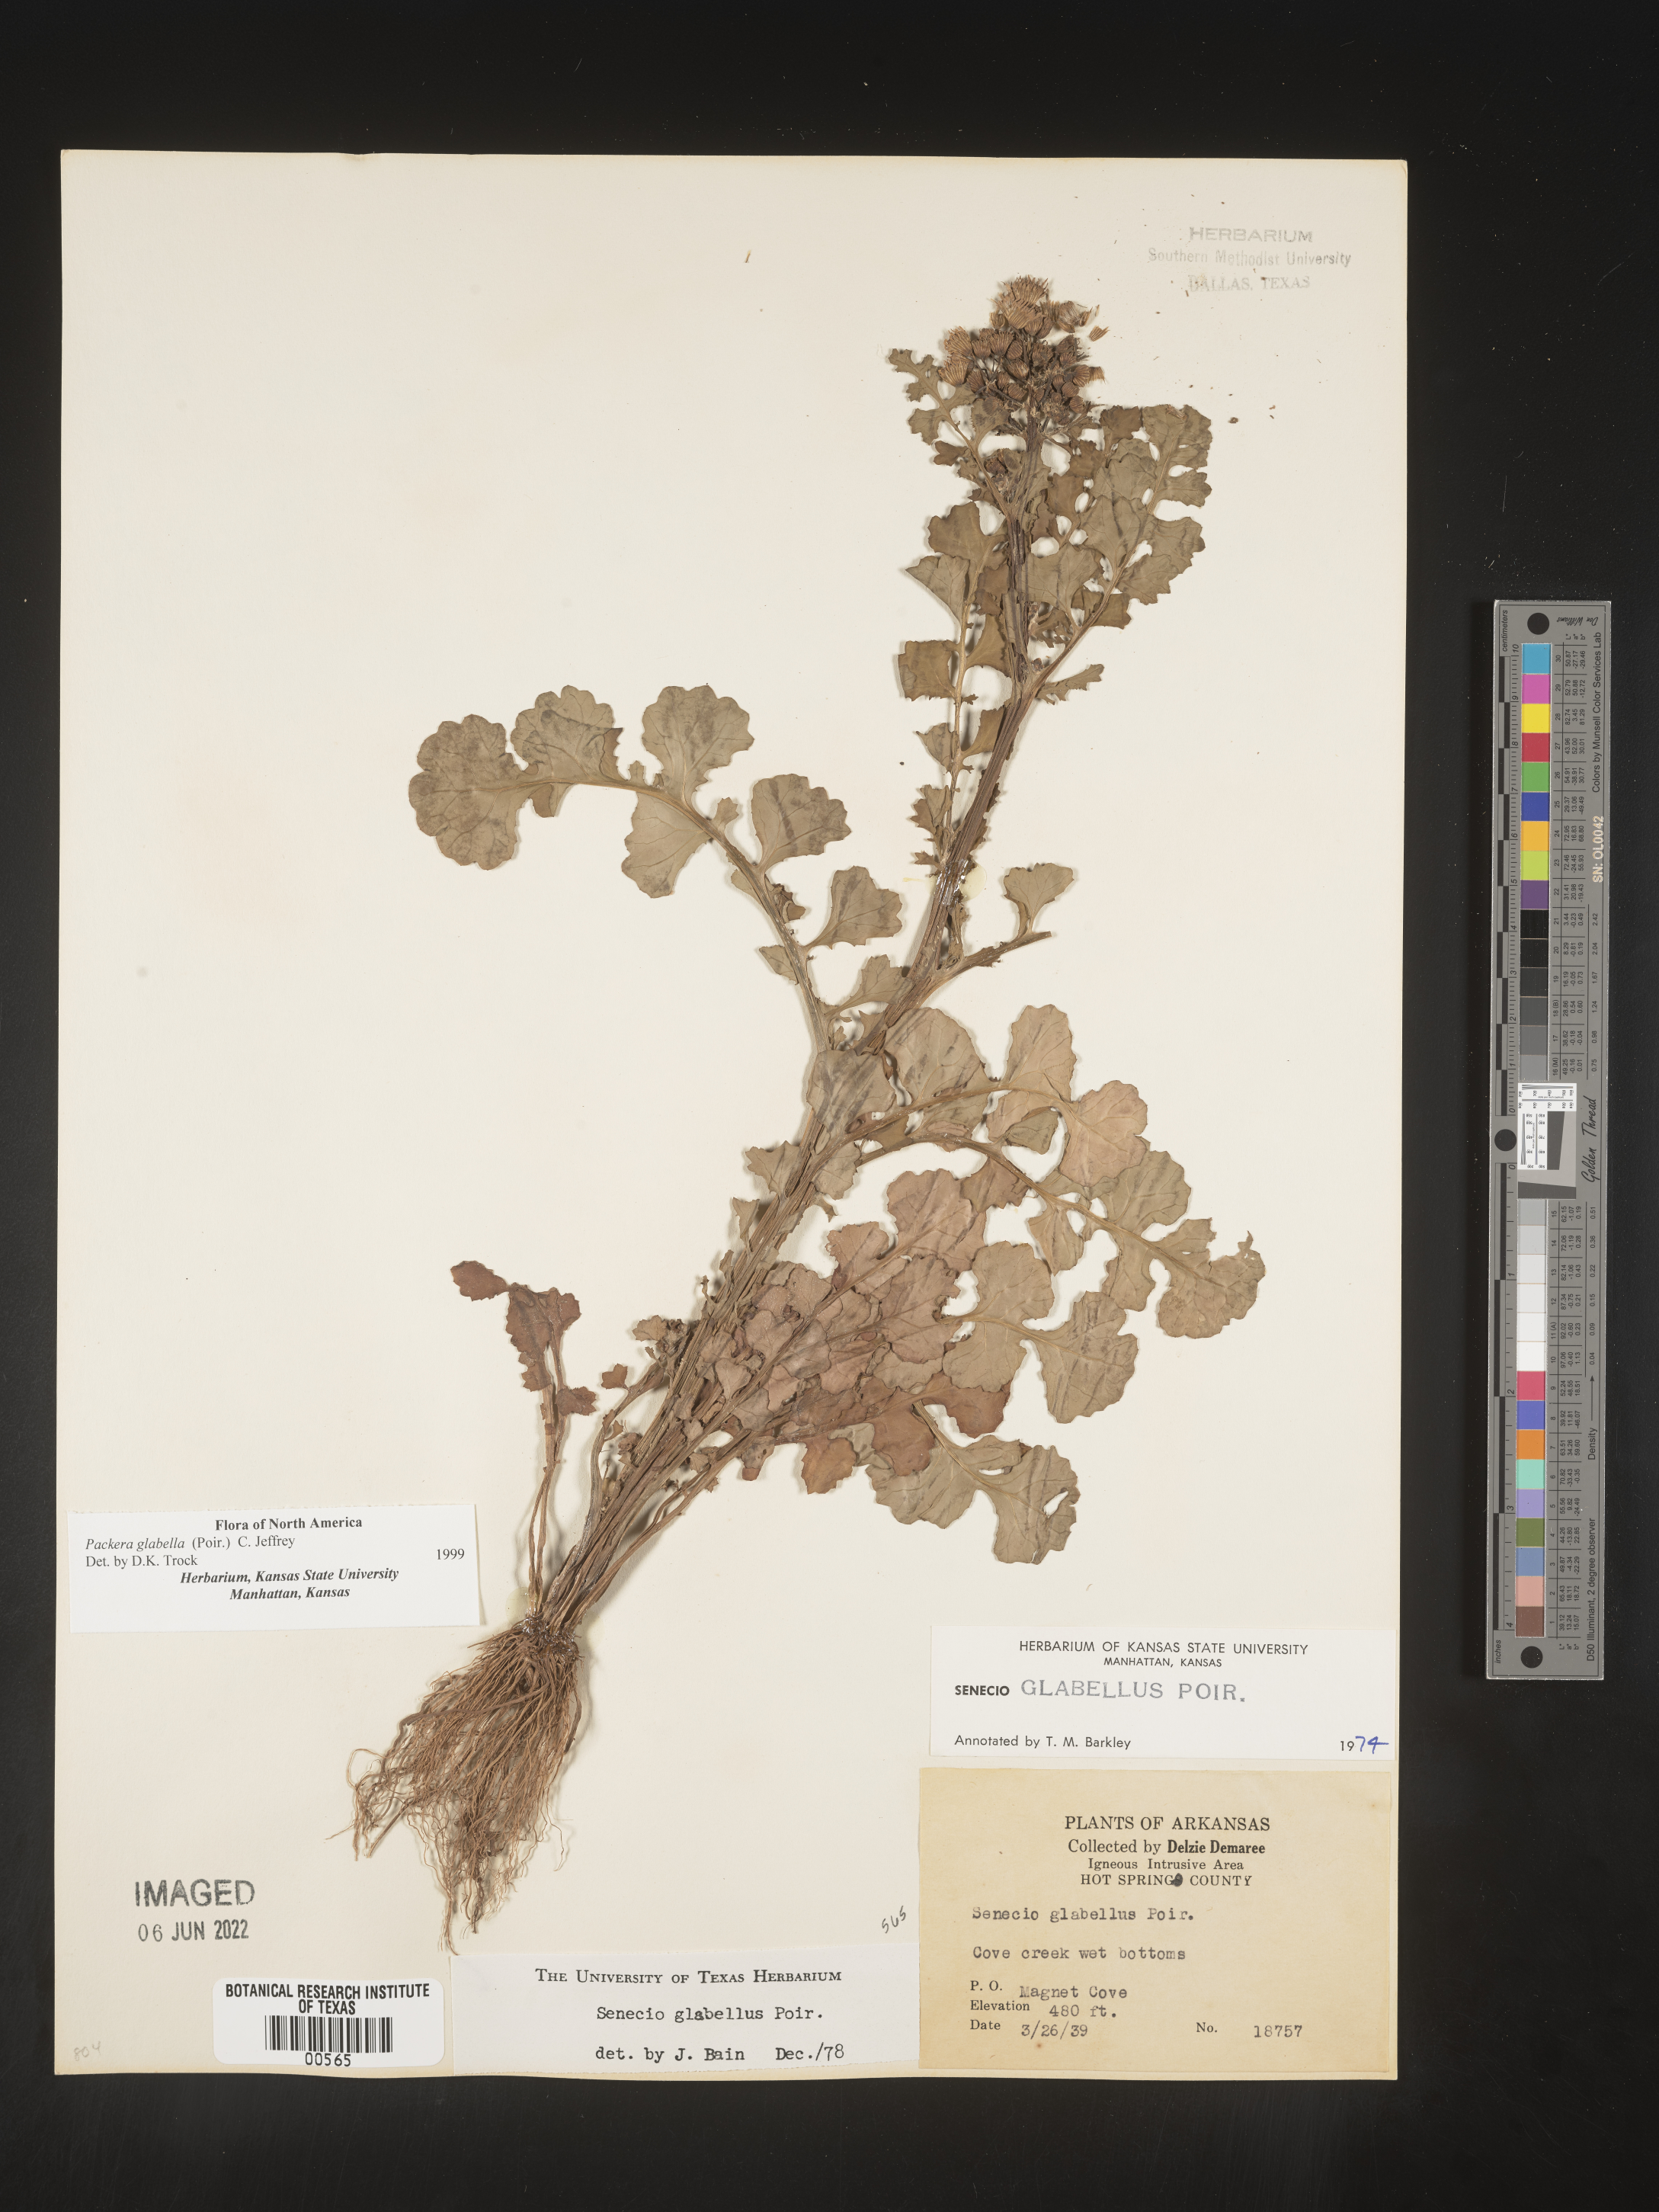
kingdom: Plantae
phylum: Tracheophyta
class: Magnoliopsida
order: Asterales
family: Asteraceae
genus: Packera
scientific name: Packera glabella
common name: Butterweed
